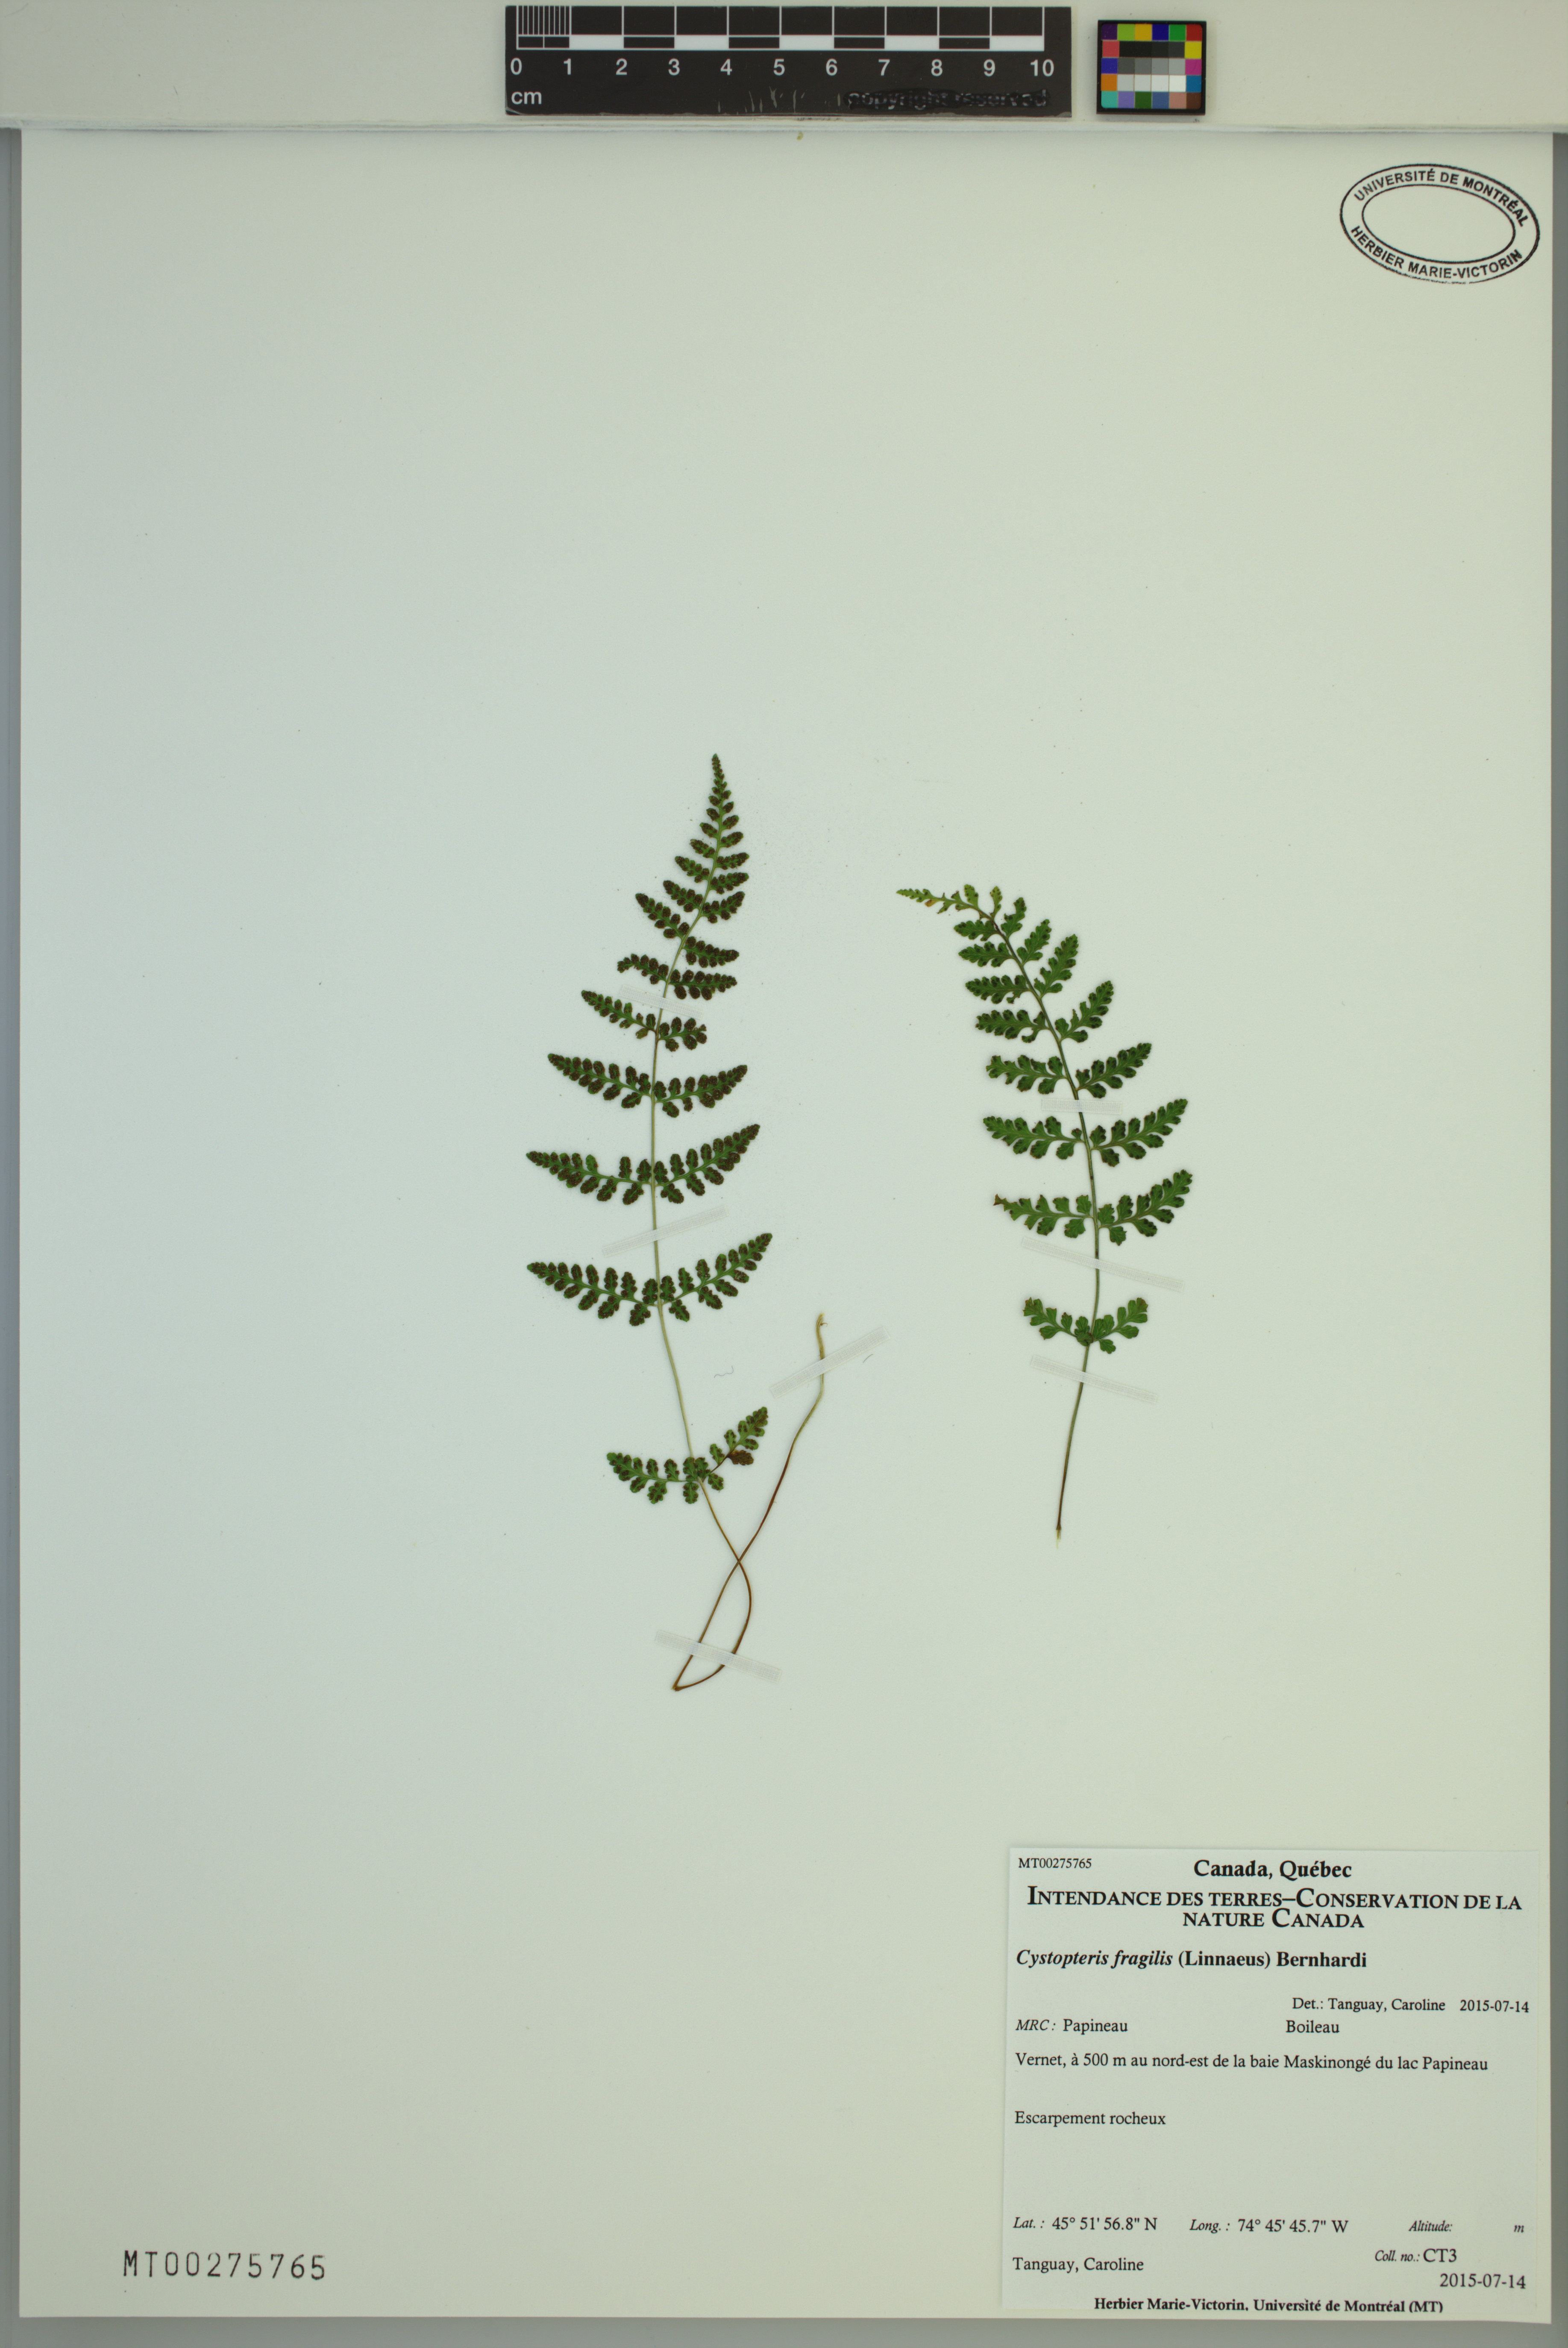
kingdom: Plantae
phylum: Tracheophyta
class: Polypodiopsida
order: Polypodiales
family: Cystopteridaceae
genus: Cystopteris
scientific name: Cystopteris fragilis
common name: Brittle bladder fern
